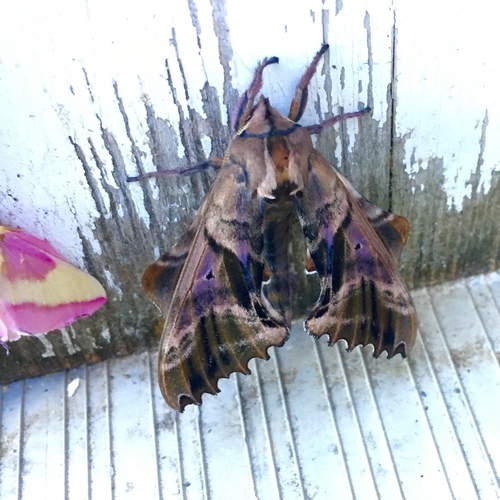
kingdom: Animalia
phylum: Arthropoda
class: Insecta
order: Lepidoptera
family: Sphingidae
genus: Paonias
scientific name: Paonias excaecata
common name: Blind-eyed sphinx
